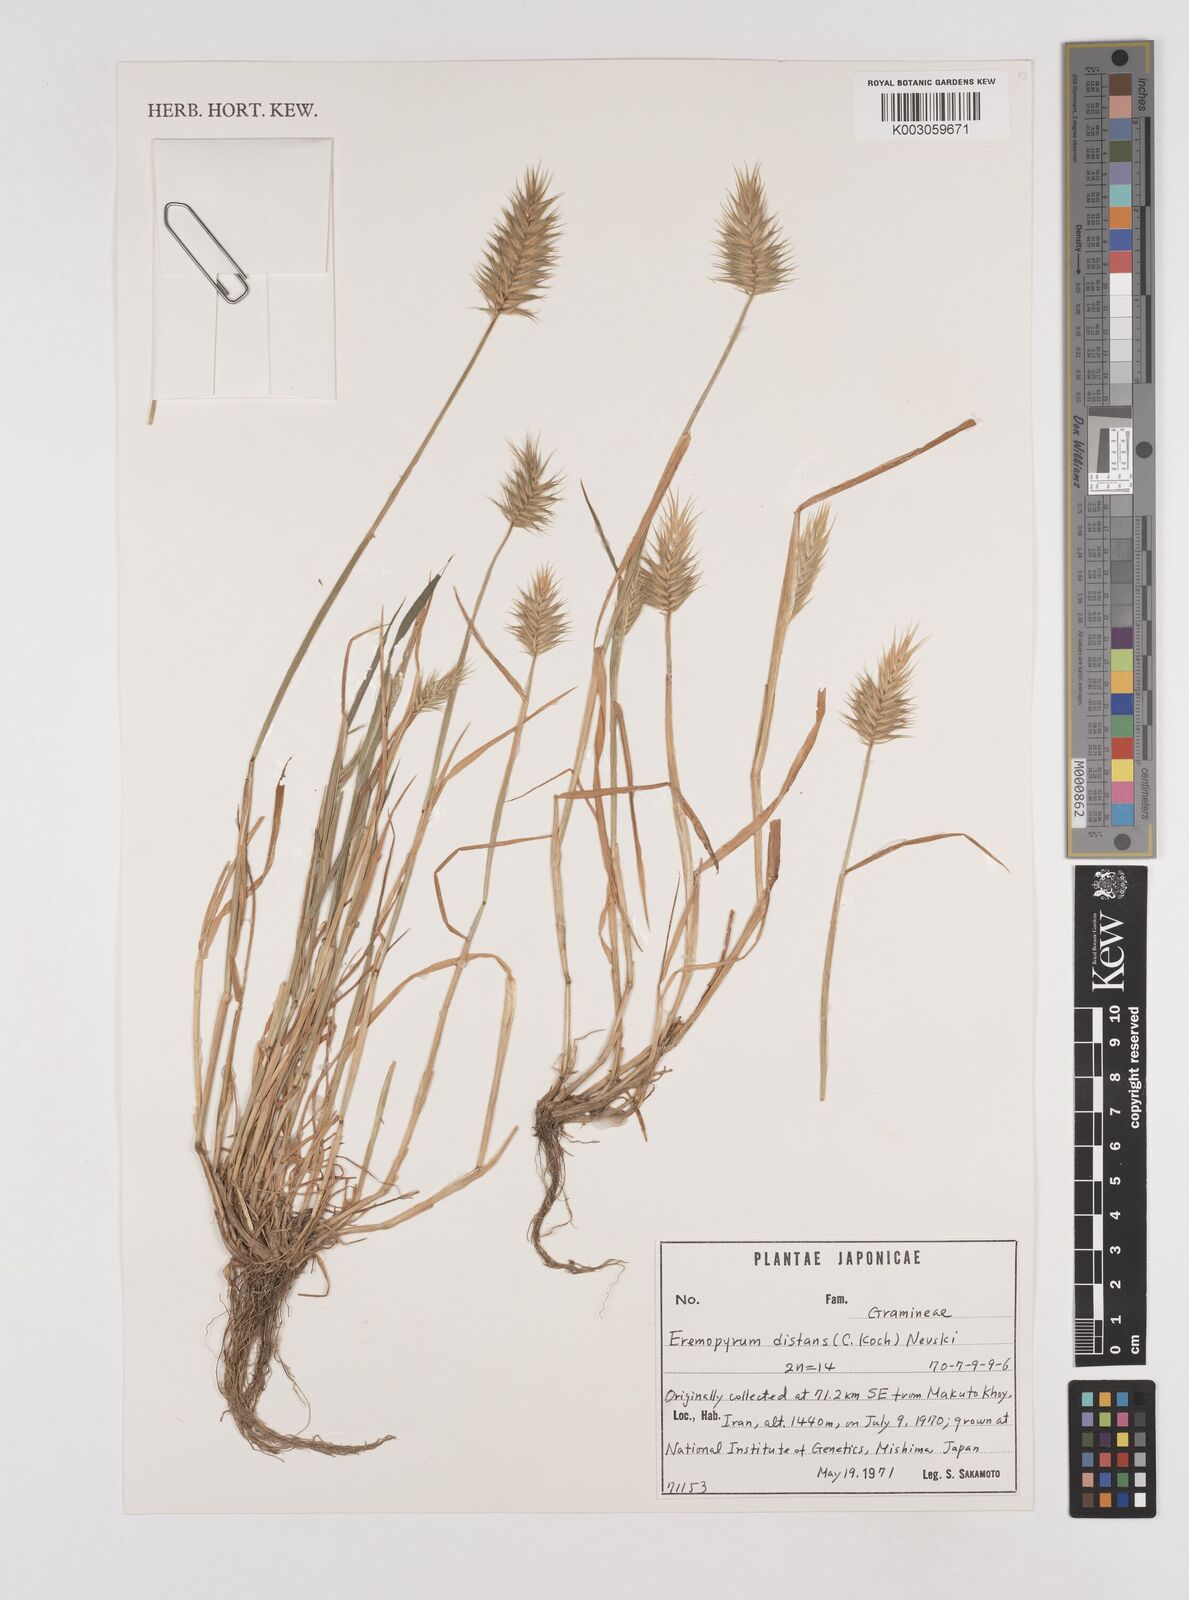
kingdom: Plantae
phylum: Tracheophyta
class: Liliopsida
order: Poales
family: Poaceae
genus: Eremopyrum
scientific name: Eremopyrum distans
